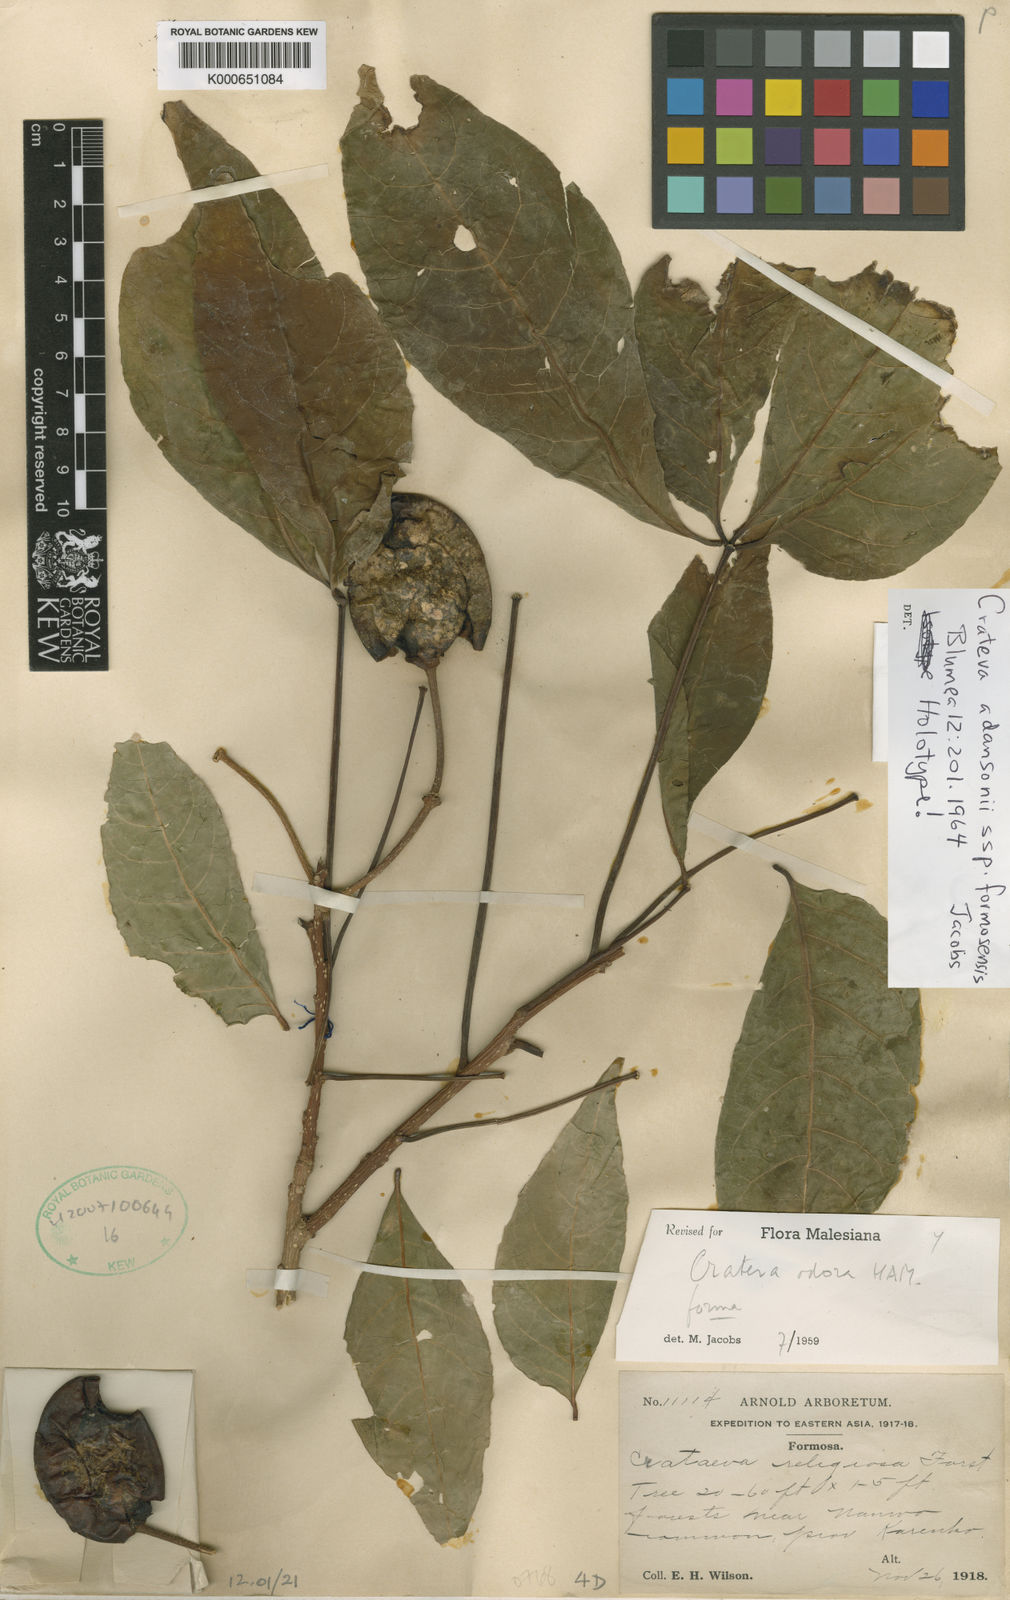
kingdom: Plantae
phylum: Tracheophyta
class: Magnoliopsida
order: Brassicales
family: Capparaceae
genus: Crateva
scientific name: Crateva adansonii
